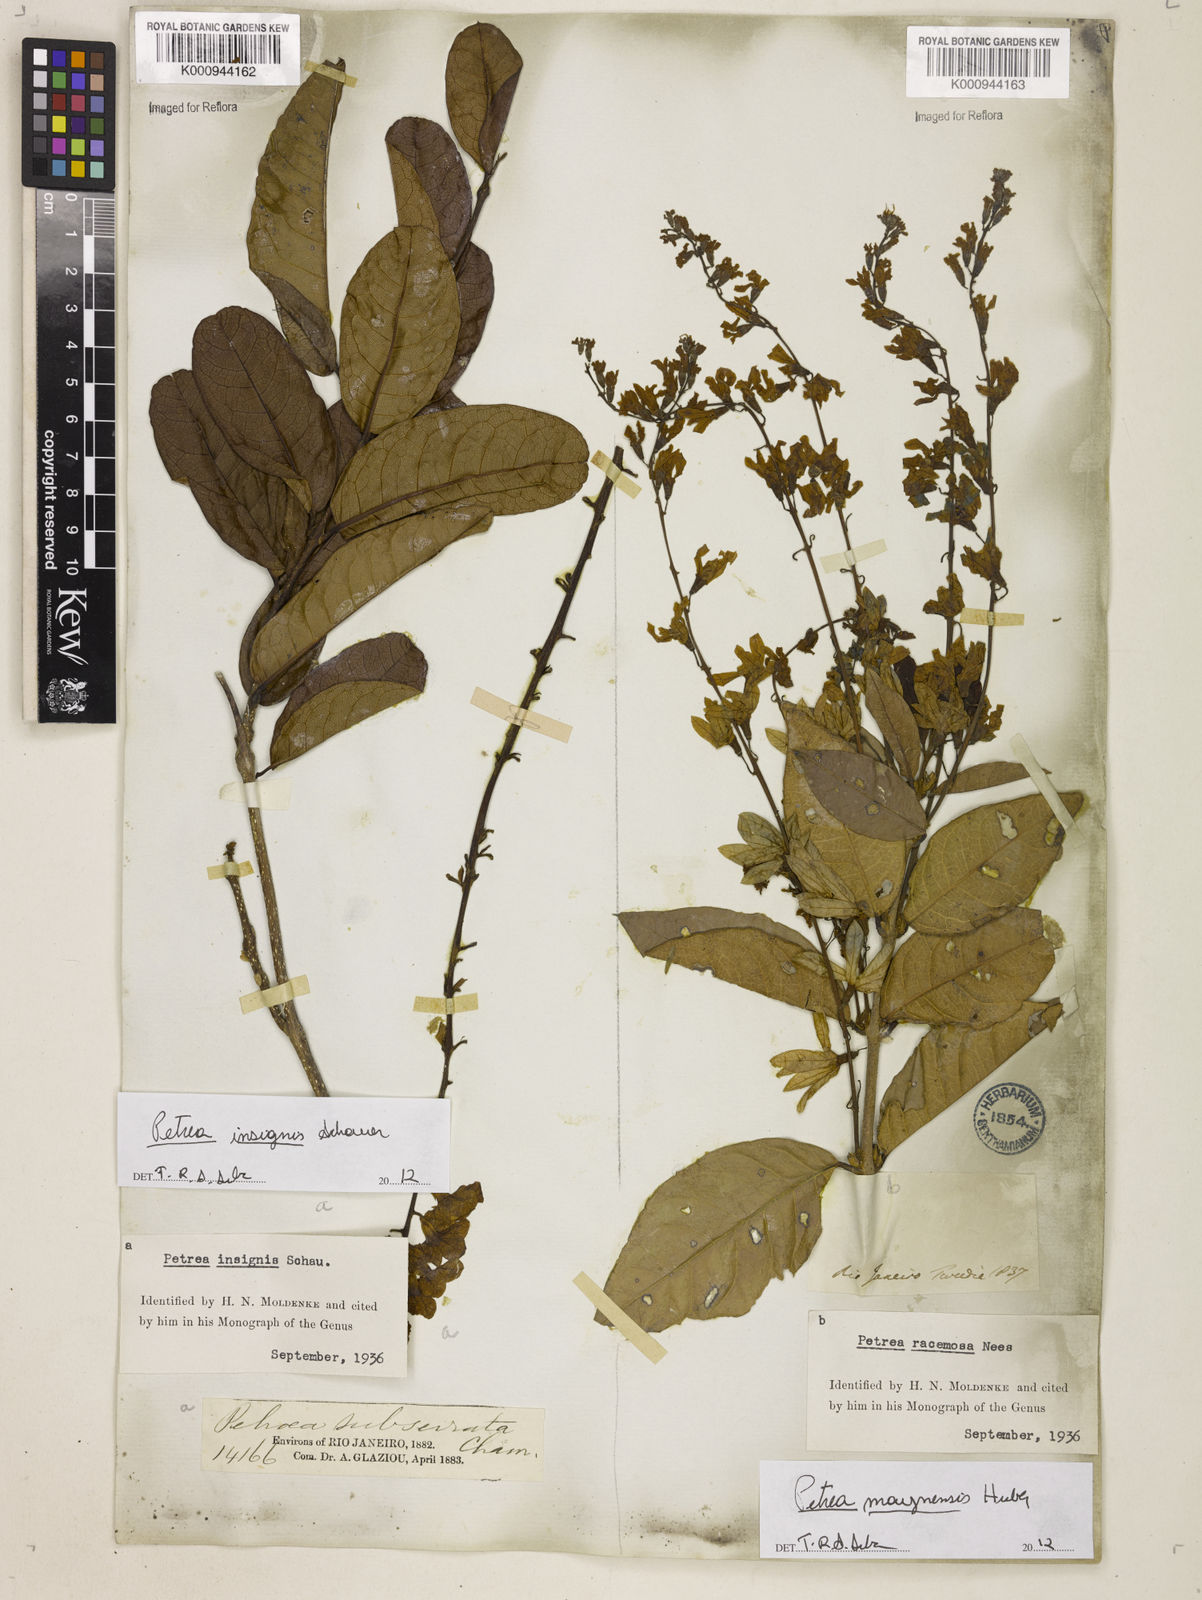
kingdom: Plantae
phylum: Tracheophyta
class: Magnoliopsida
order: Lamiales
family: Verbenaceae
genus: Petrea
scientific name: Petrea insignis
